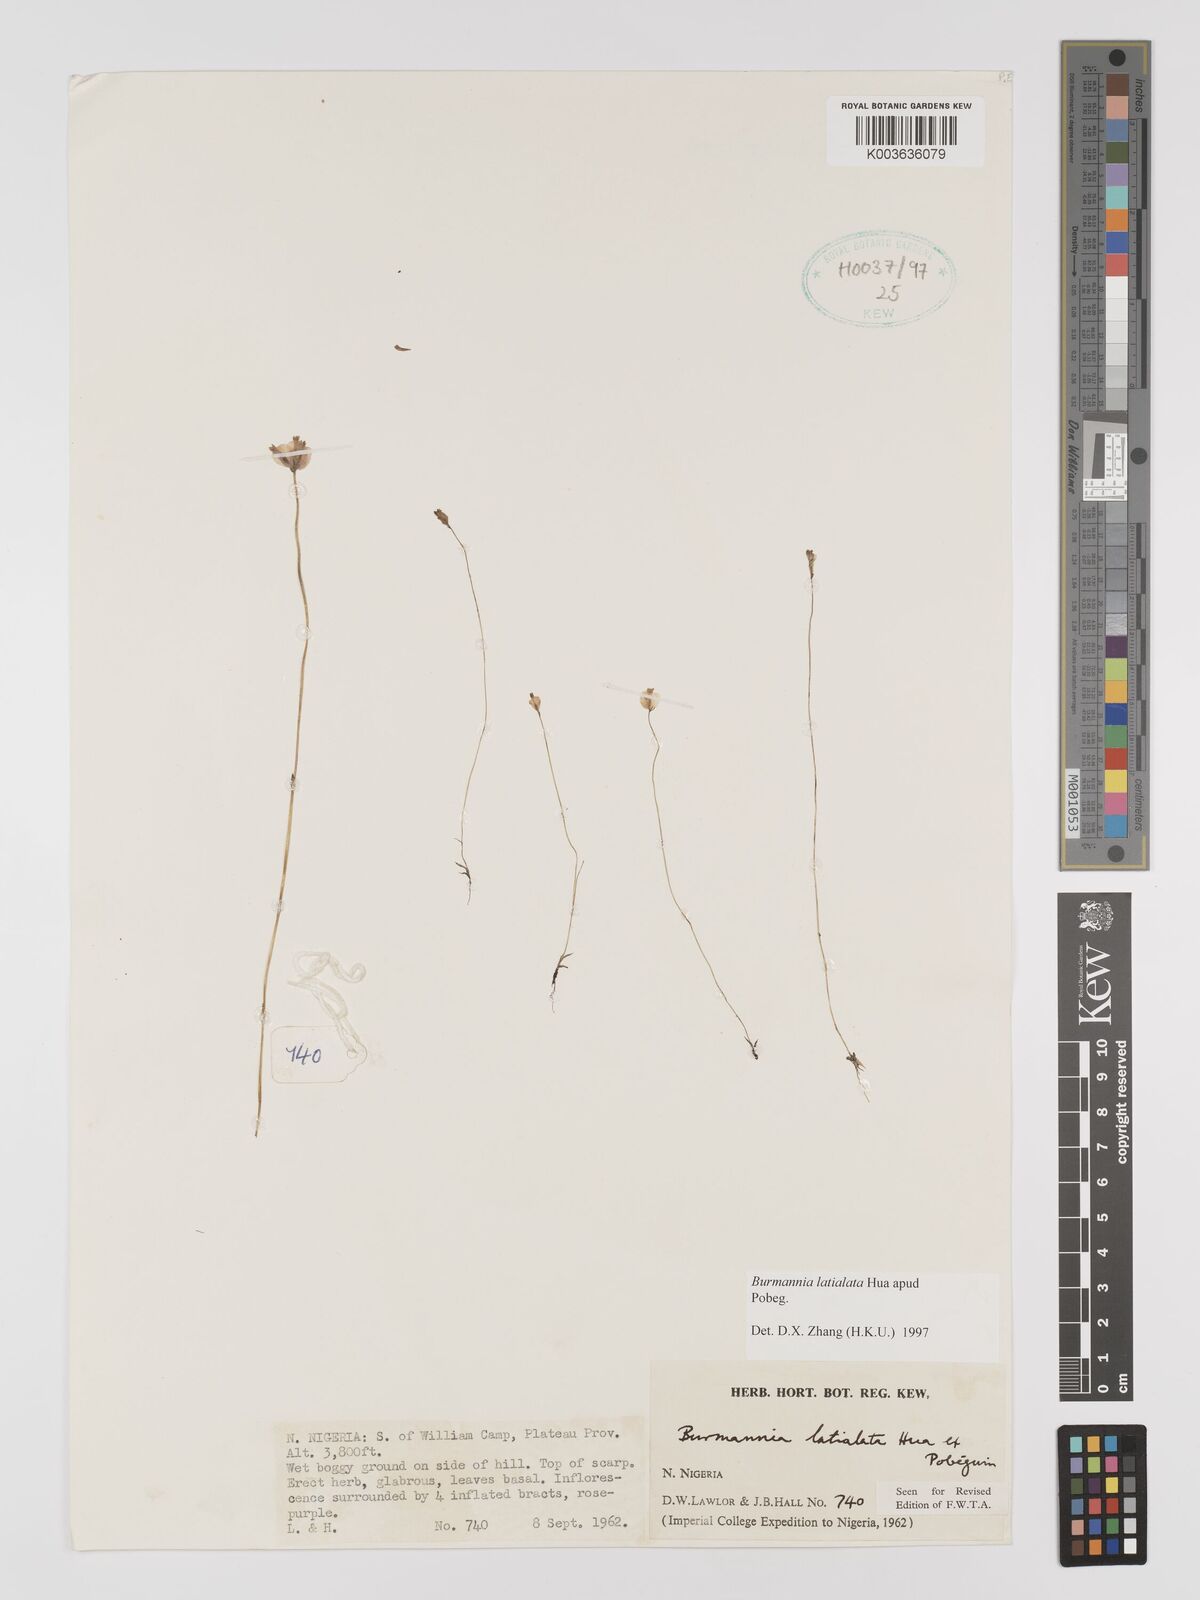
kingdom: Plantae
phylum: Tracheophyta
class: Liliopsida
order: Dioscoreales
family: Burmanniaceae
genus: Burmannia
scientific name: Burmannia madagascariensis
